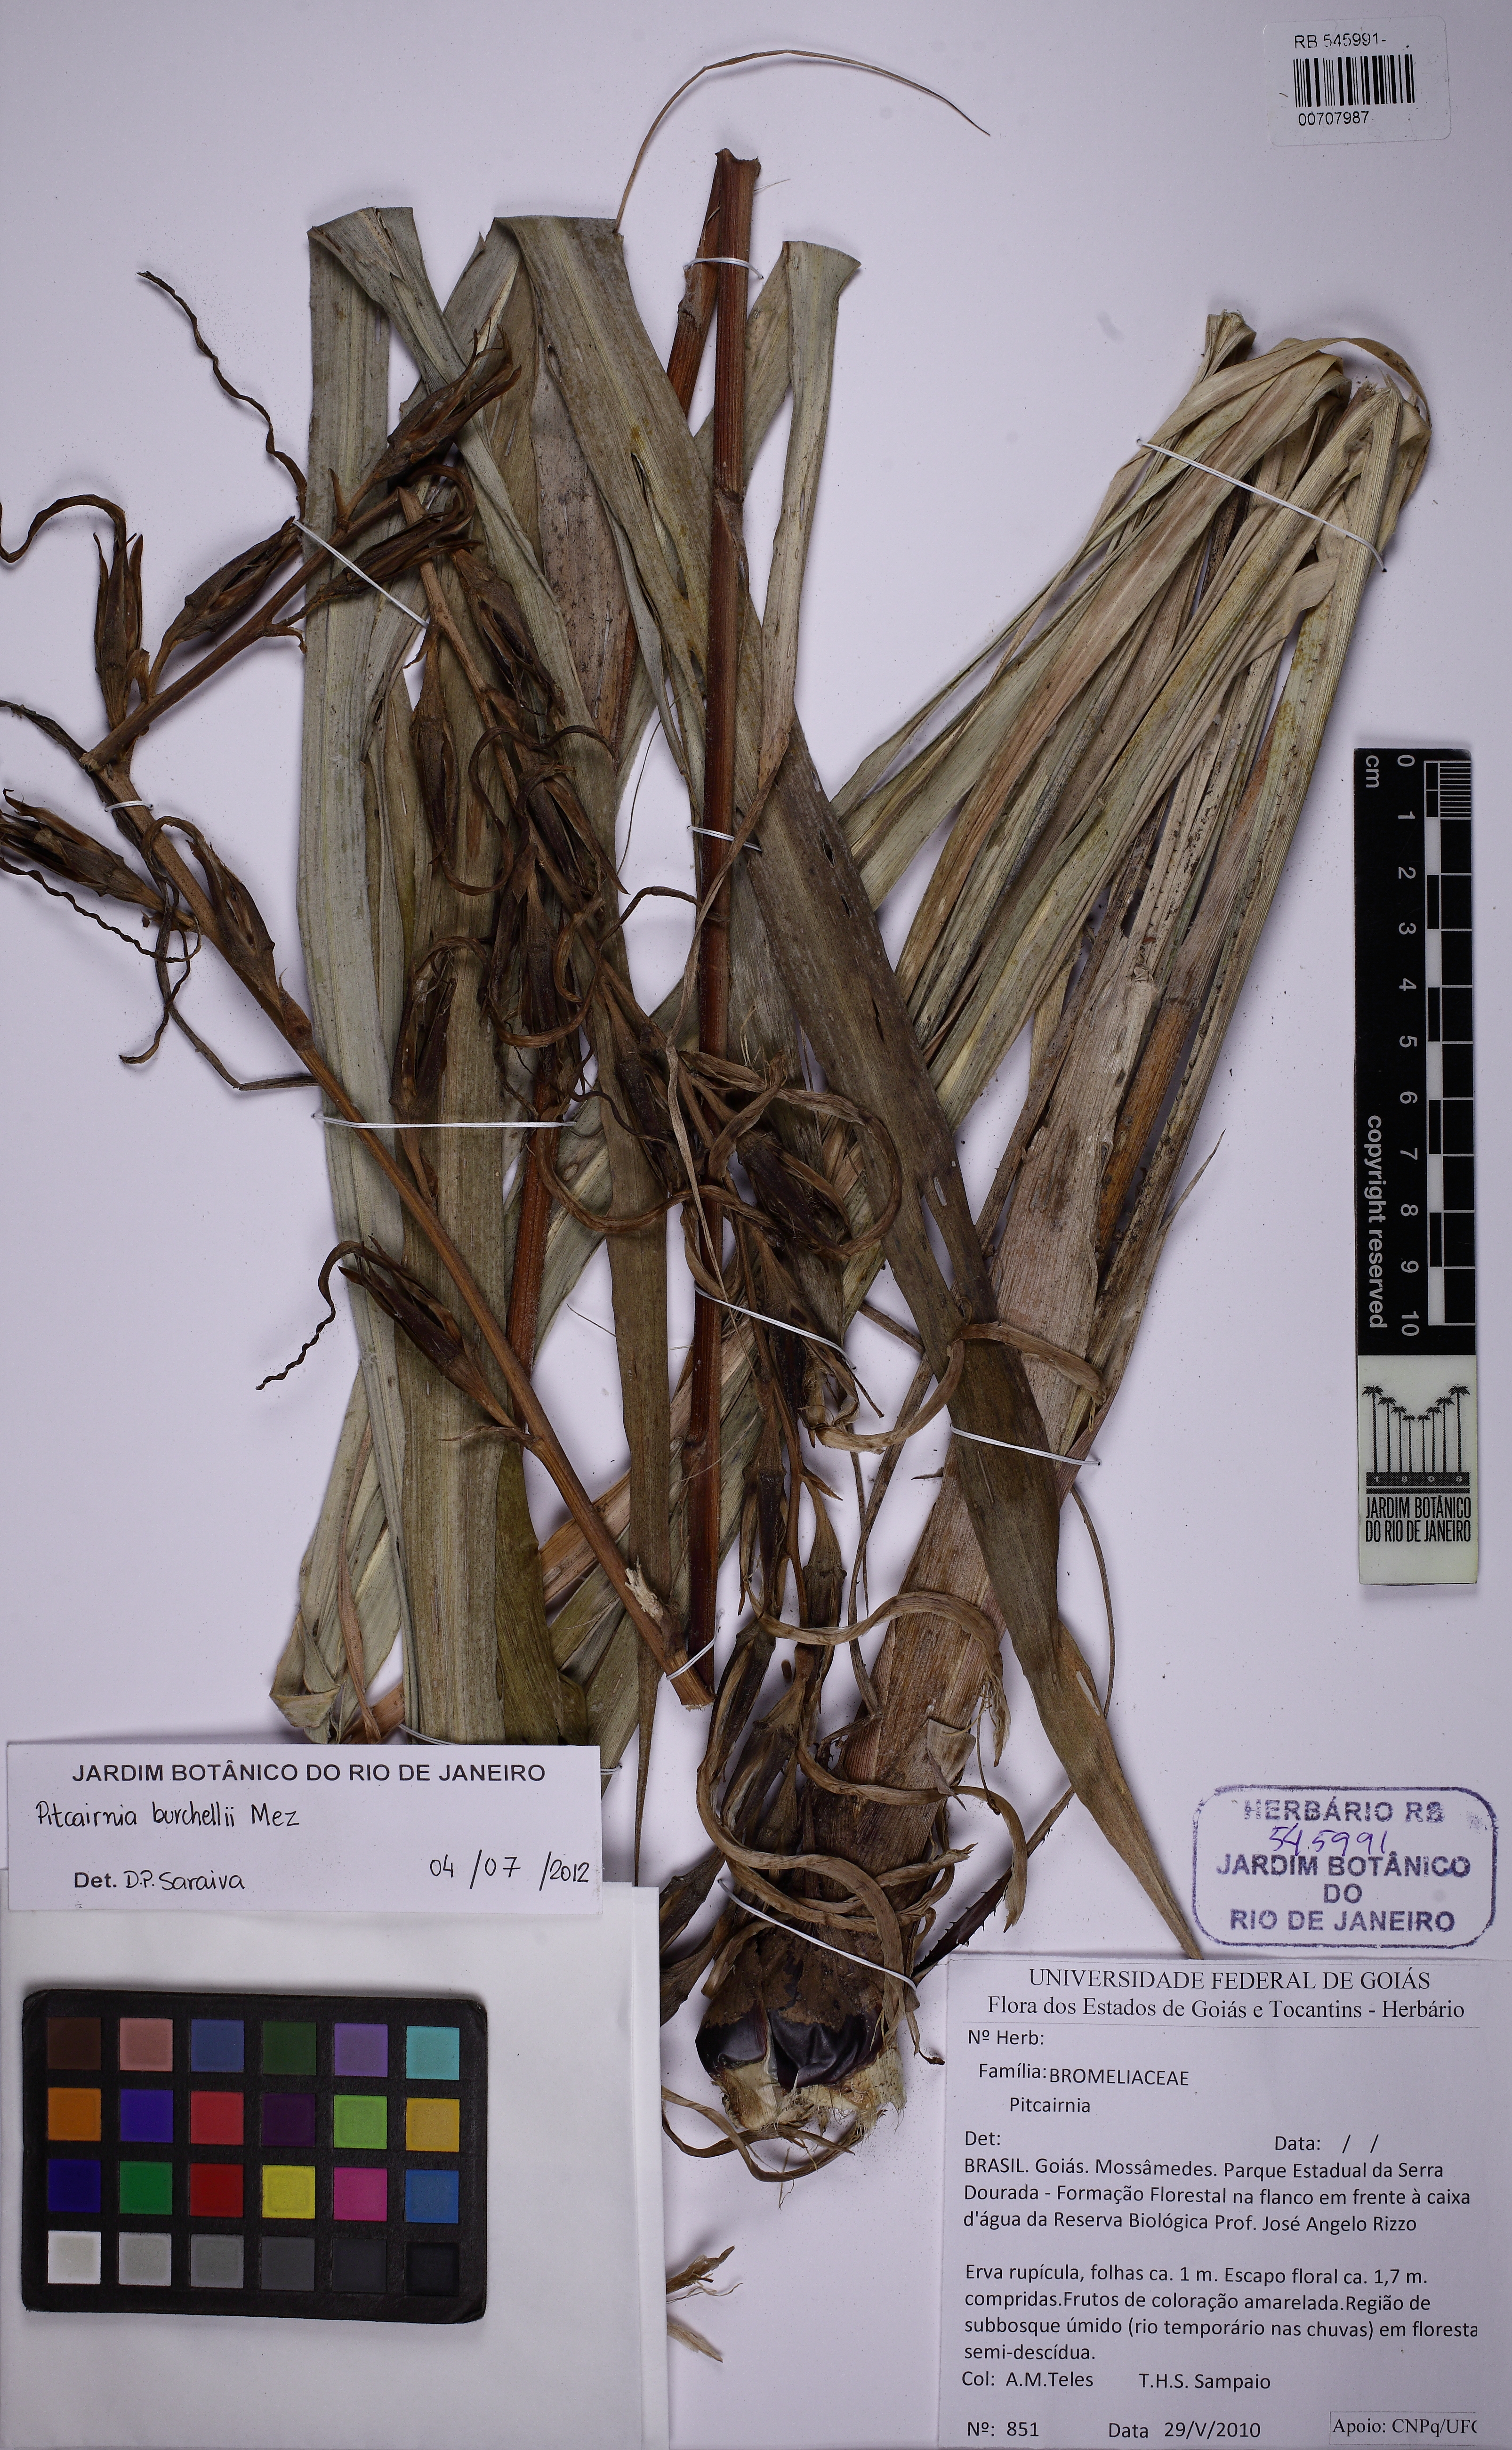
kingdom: Plantae
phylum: Tracheophyta
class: Liliopsida
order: Poales
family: Bromeliaceae
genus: Pitcairnia
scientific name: Pitcairnia lanuginosa
